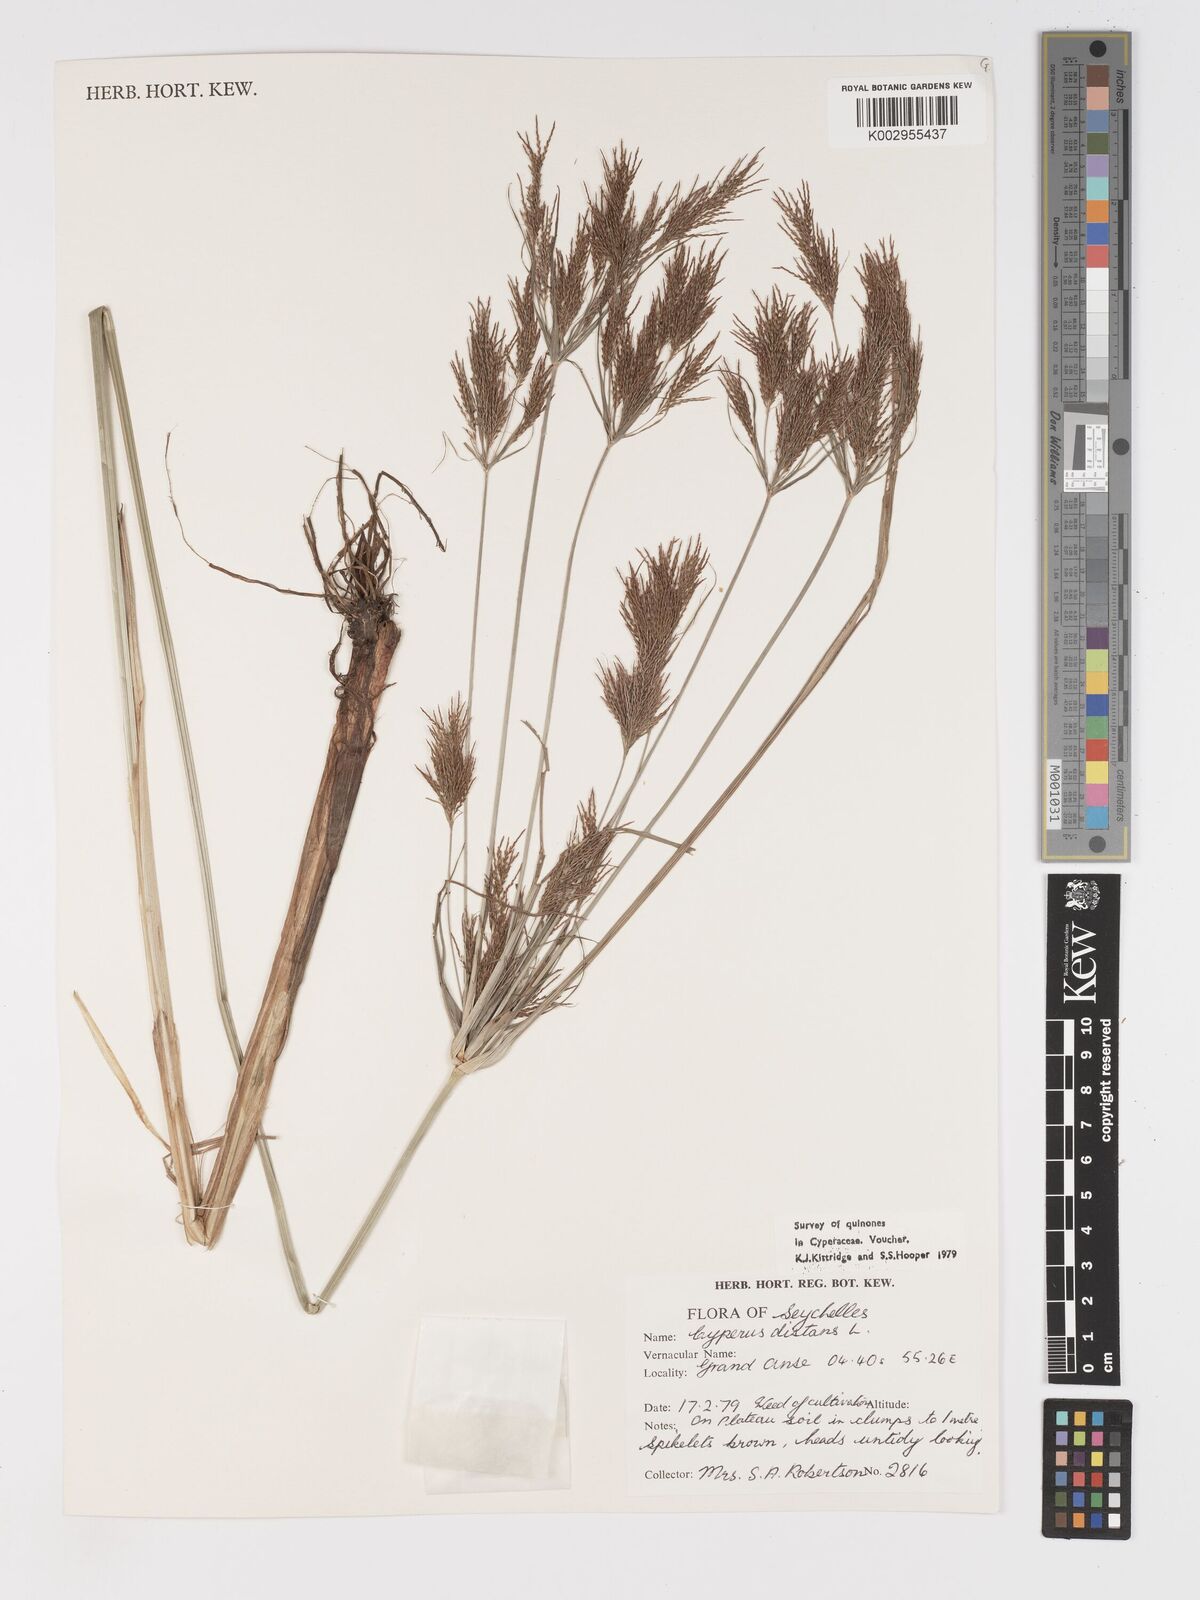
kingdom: Plantae
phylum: Tracheophyta
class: Liliopsida
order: Poales
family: Cyperaceae
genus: Cyperus
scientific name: Cyperus distans
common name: Slender cyperus
